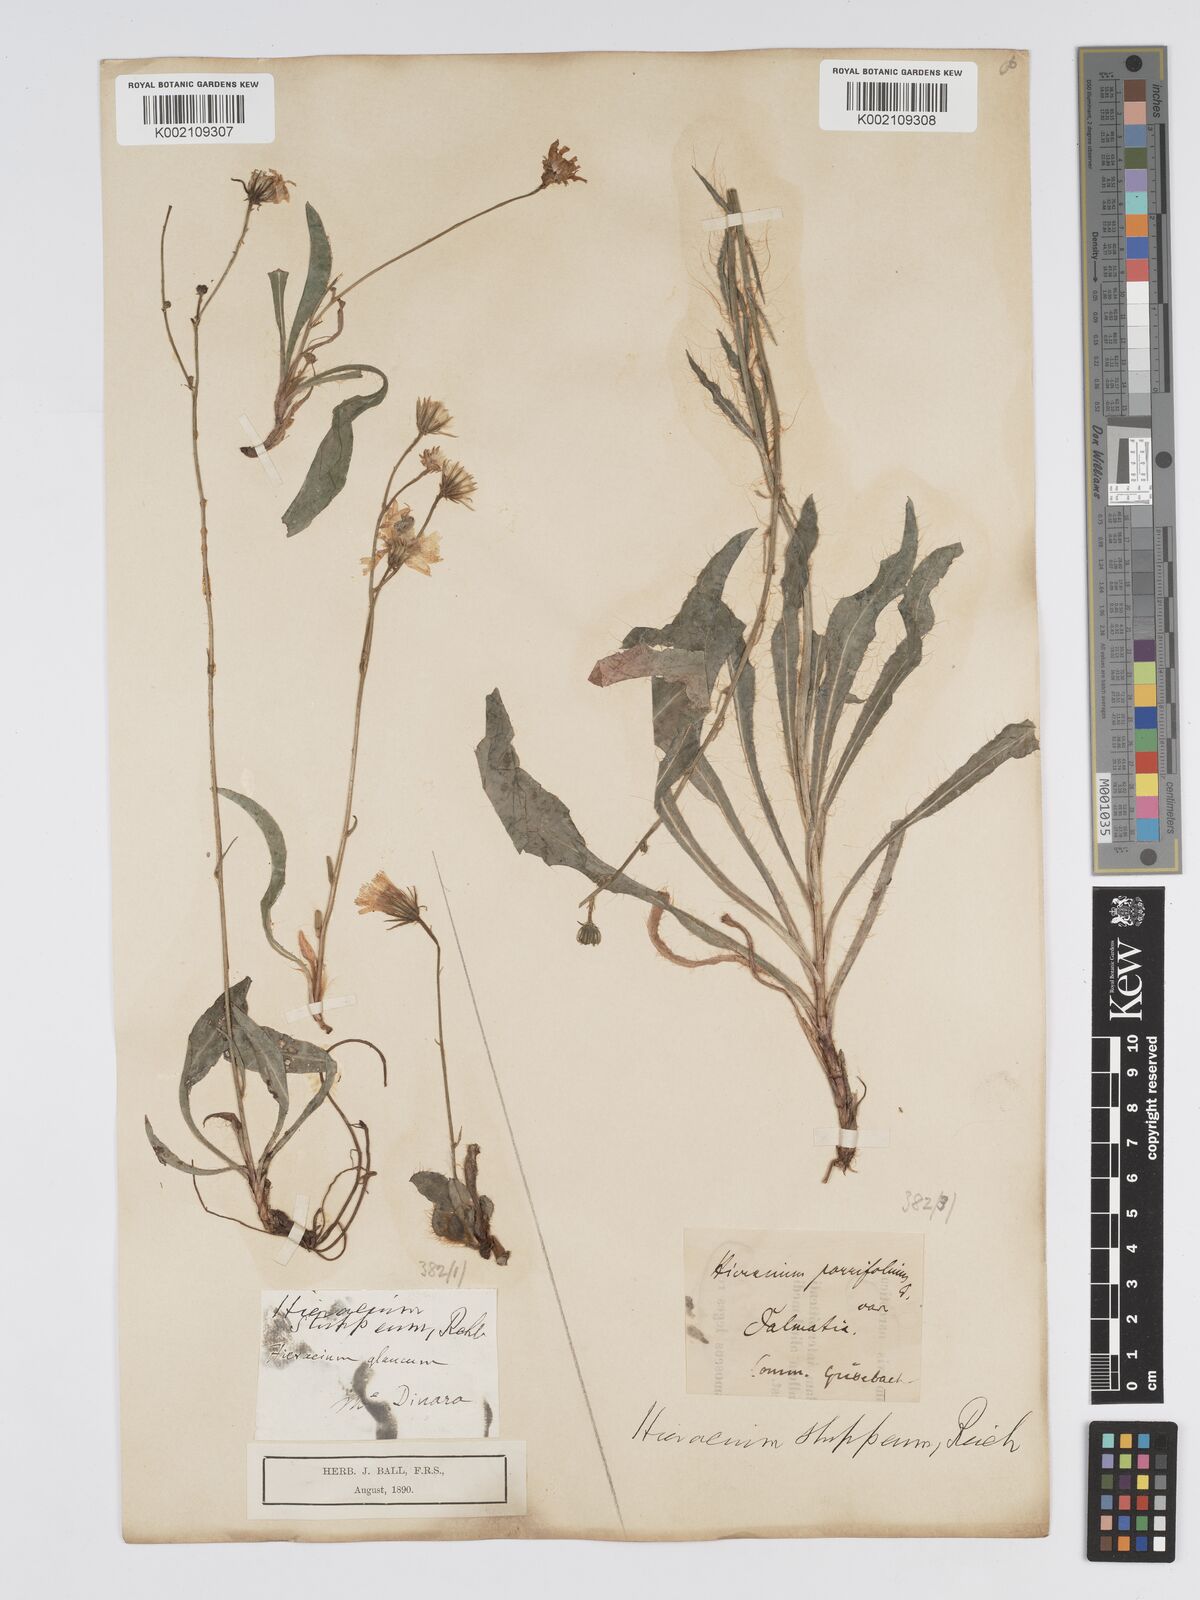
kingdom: Plantae
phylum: Tracheophyta
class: Magnoliopsida
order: Asterales
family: Asteraceae
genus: Hieracium
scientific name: Hieracium heterogynum
